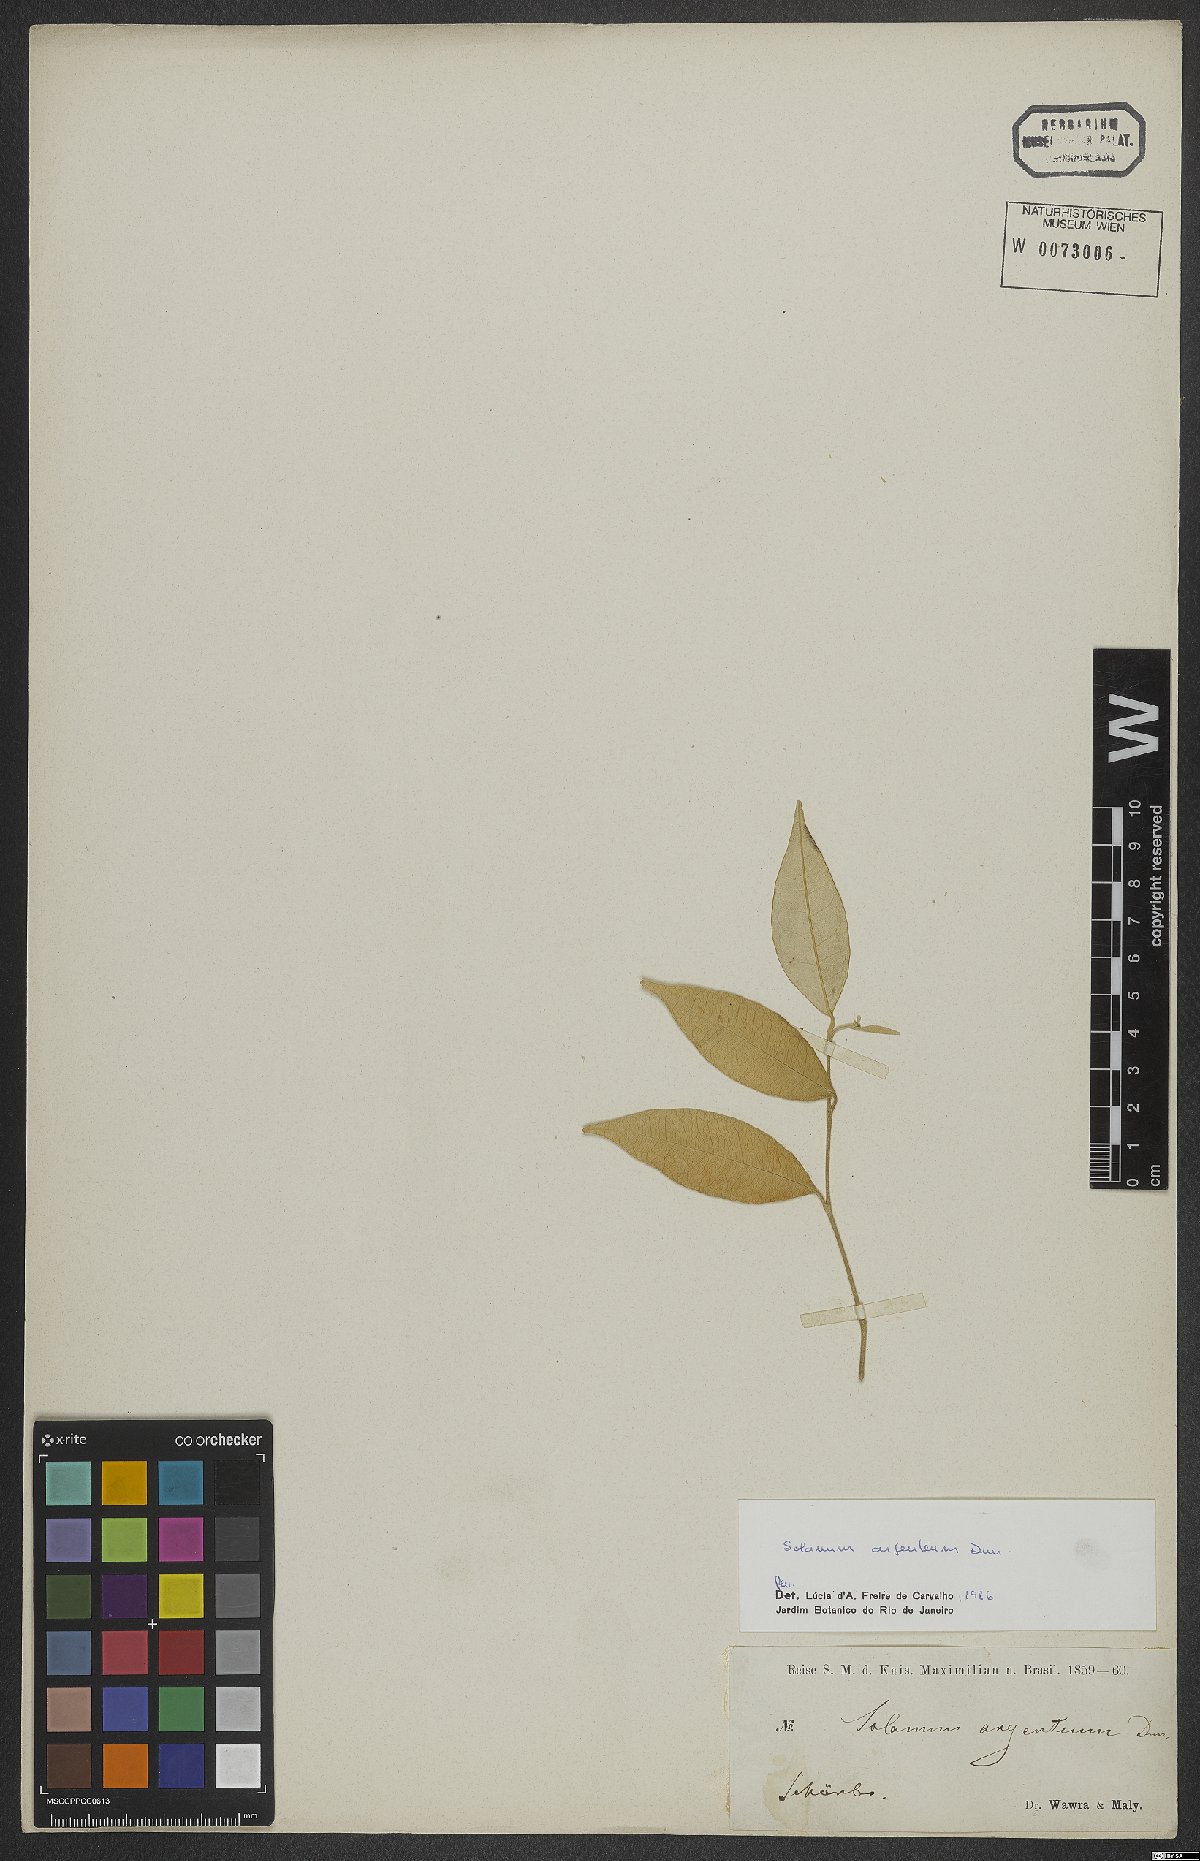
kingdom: Plantae
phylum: Tracheophyta
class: Magnoliopsida
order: Solanales
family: Solanaceae
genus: Solanum
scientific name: Solanum swartzianum
